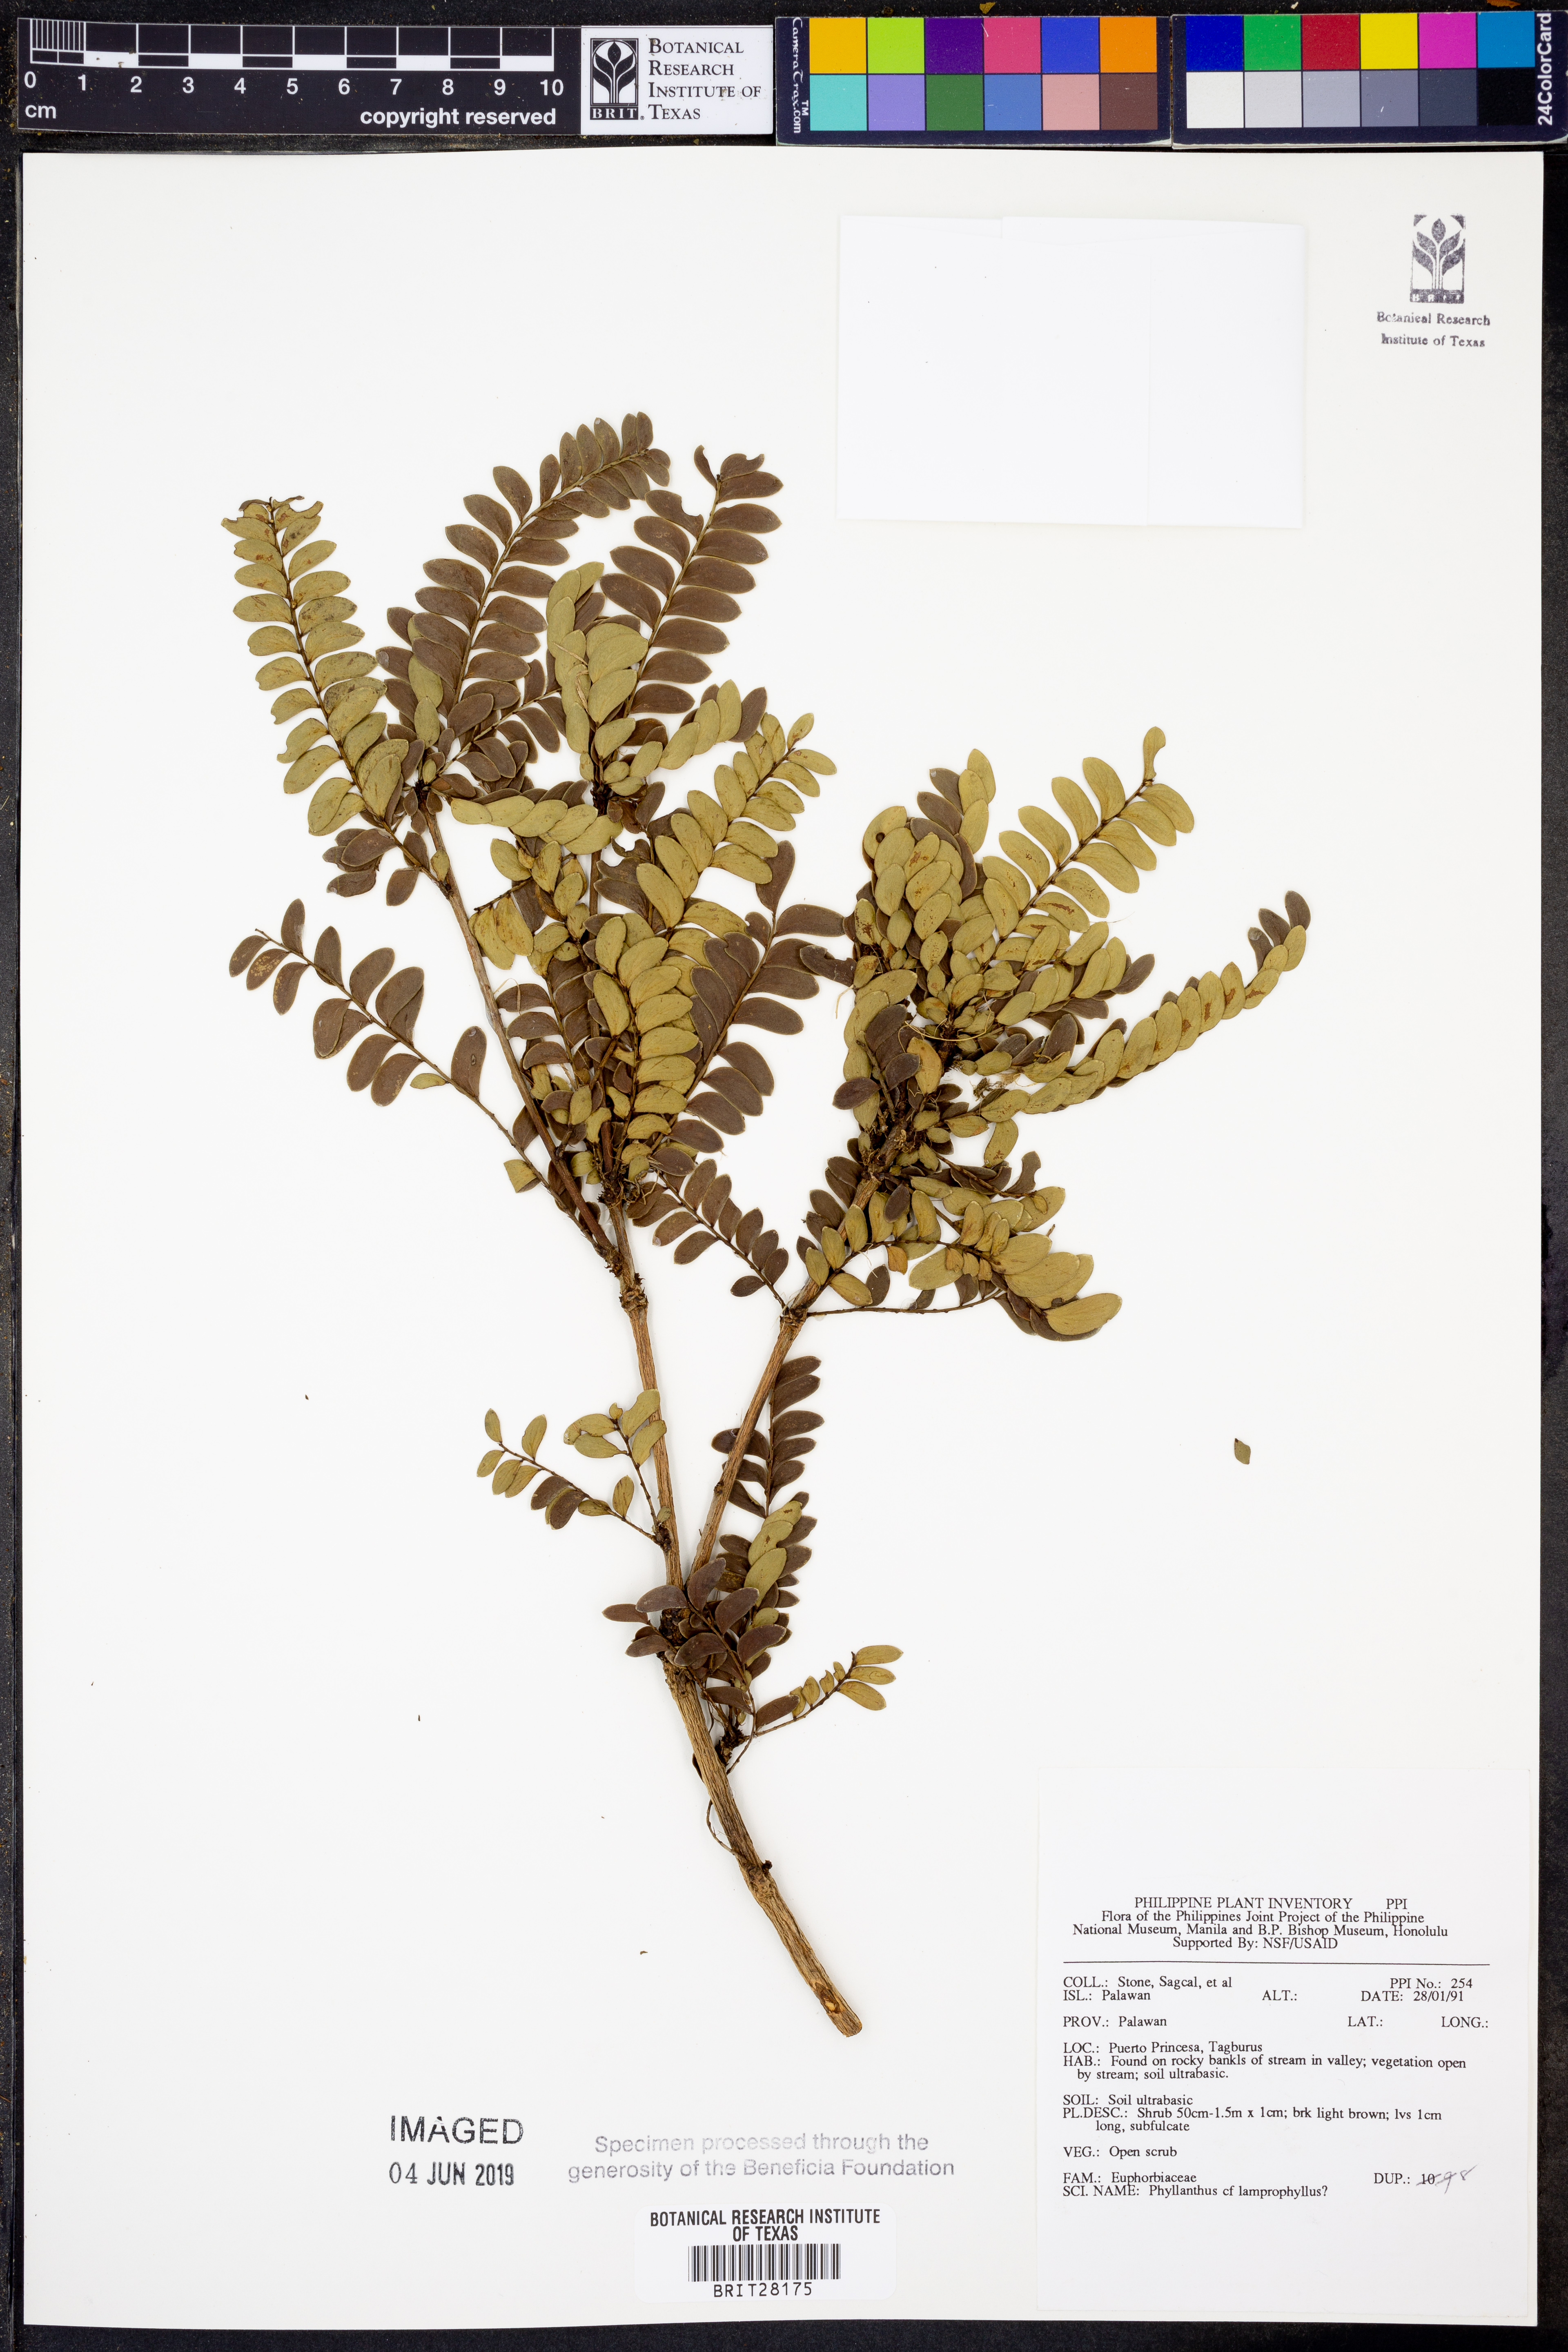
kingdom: Plantae
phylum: Tracheophyta
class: Magnoliopsida
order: Malpighiales
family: Phyllanthaceae
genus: Glochidion
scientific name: Glochidion lamprophyllum
